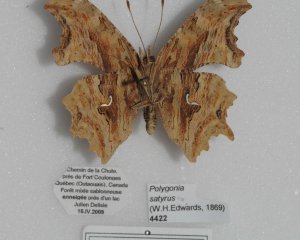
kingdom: Animalia
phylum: Arthropoda
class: Insecta
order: Lepidoptera
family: Nymphalidae
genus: Polygonia
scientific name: Polygonia satyrus
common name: Satyr Comma
